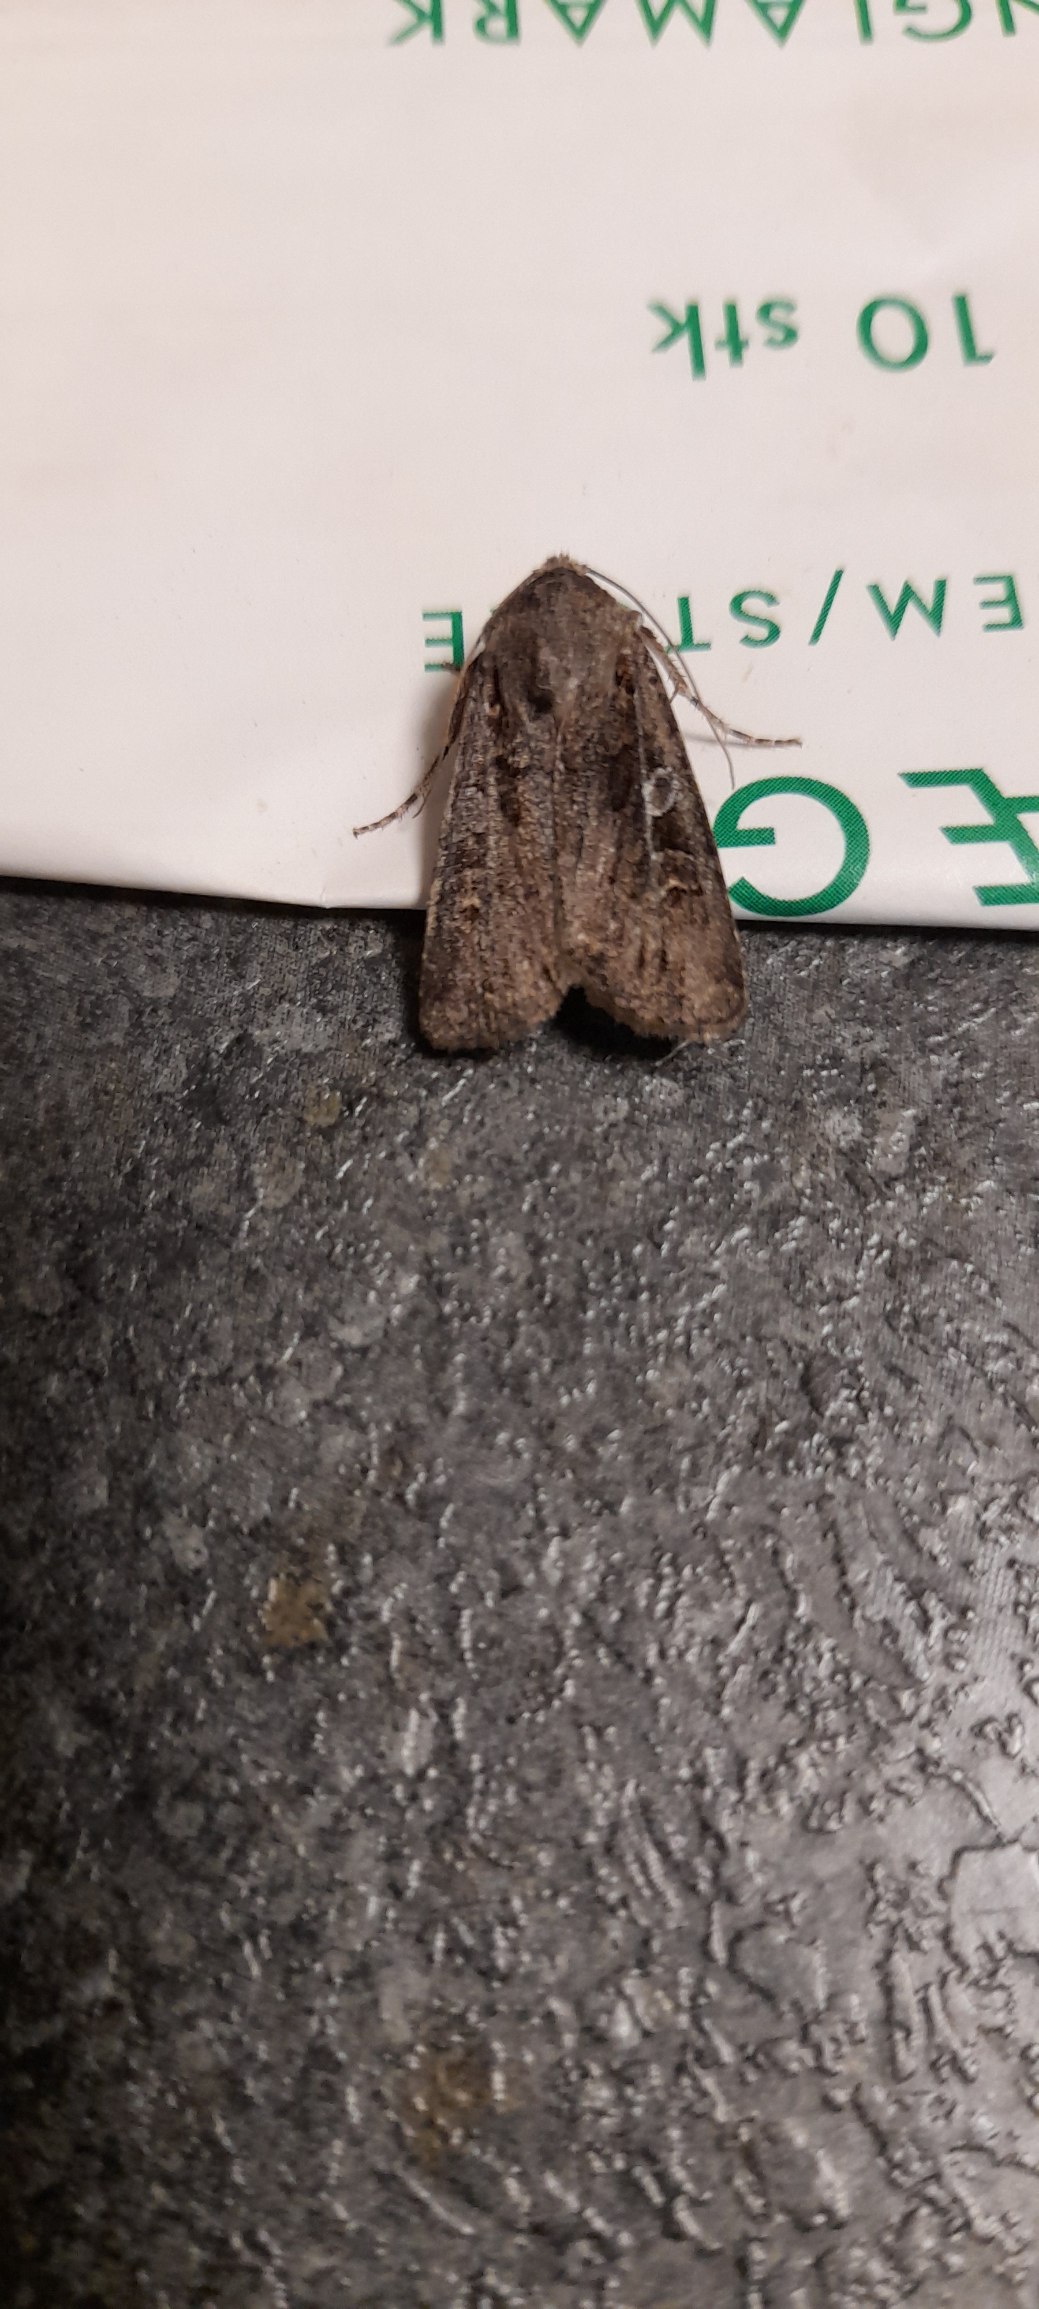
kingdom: Animalia
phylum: Arthropoda
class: Insecta
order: Lepidoptera
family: Noctuidae
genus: Euxoa
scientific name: Euxoa tritici
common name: Hvedeugle
